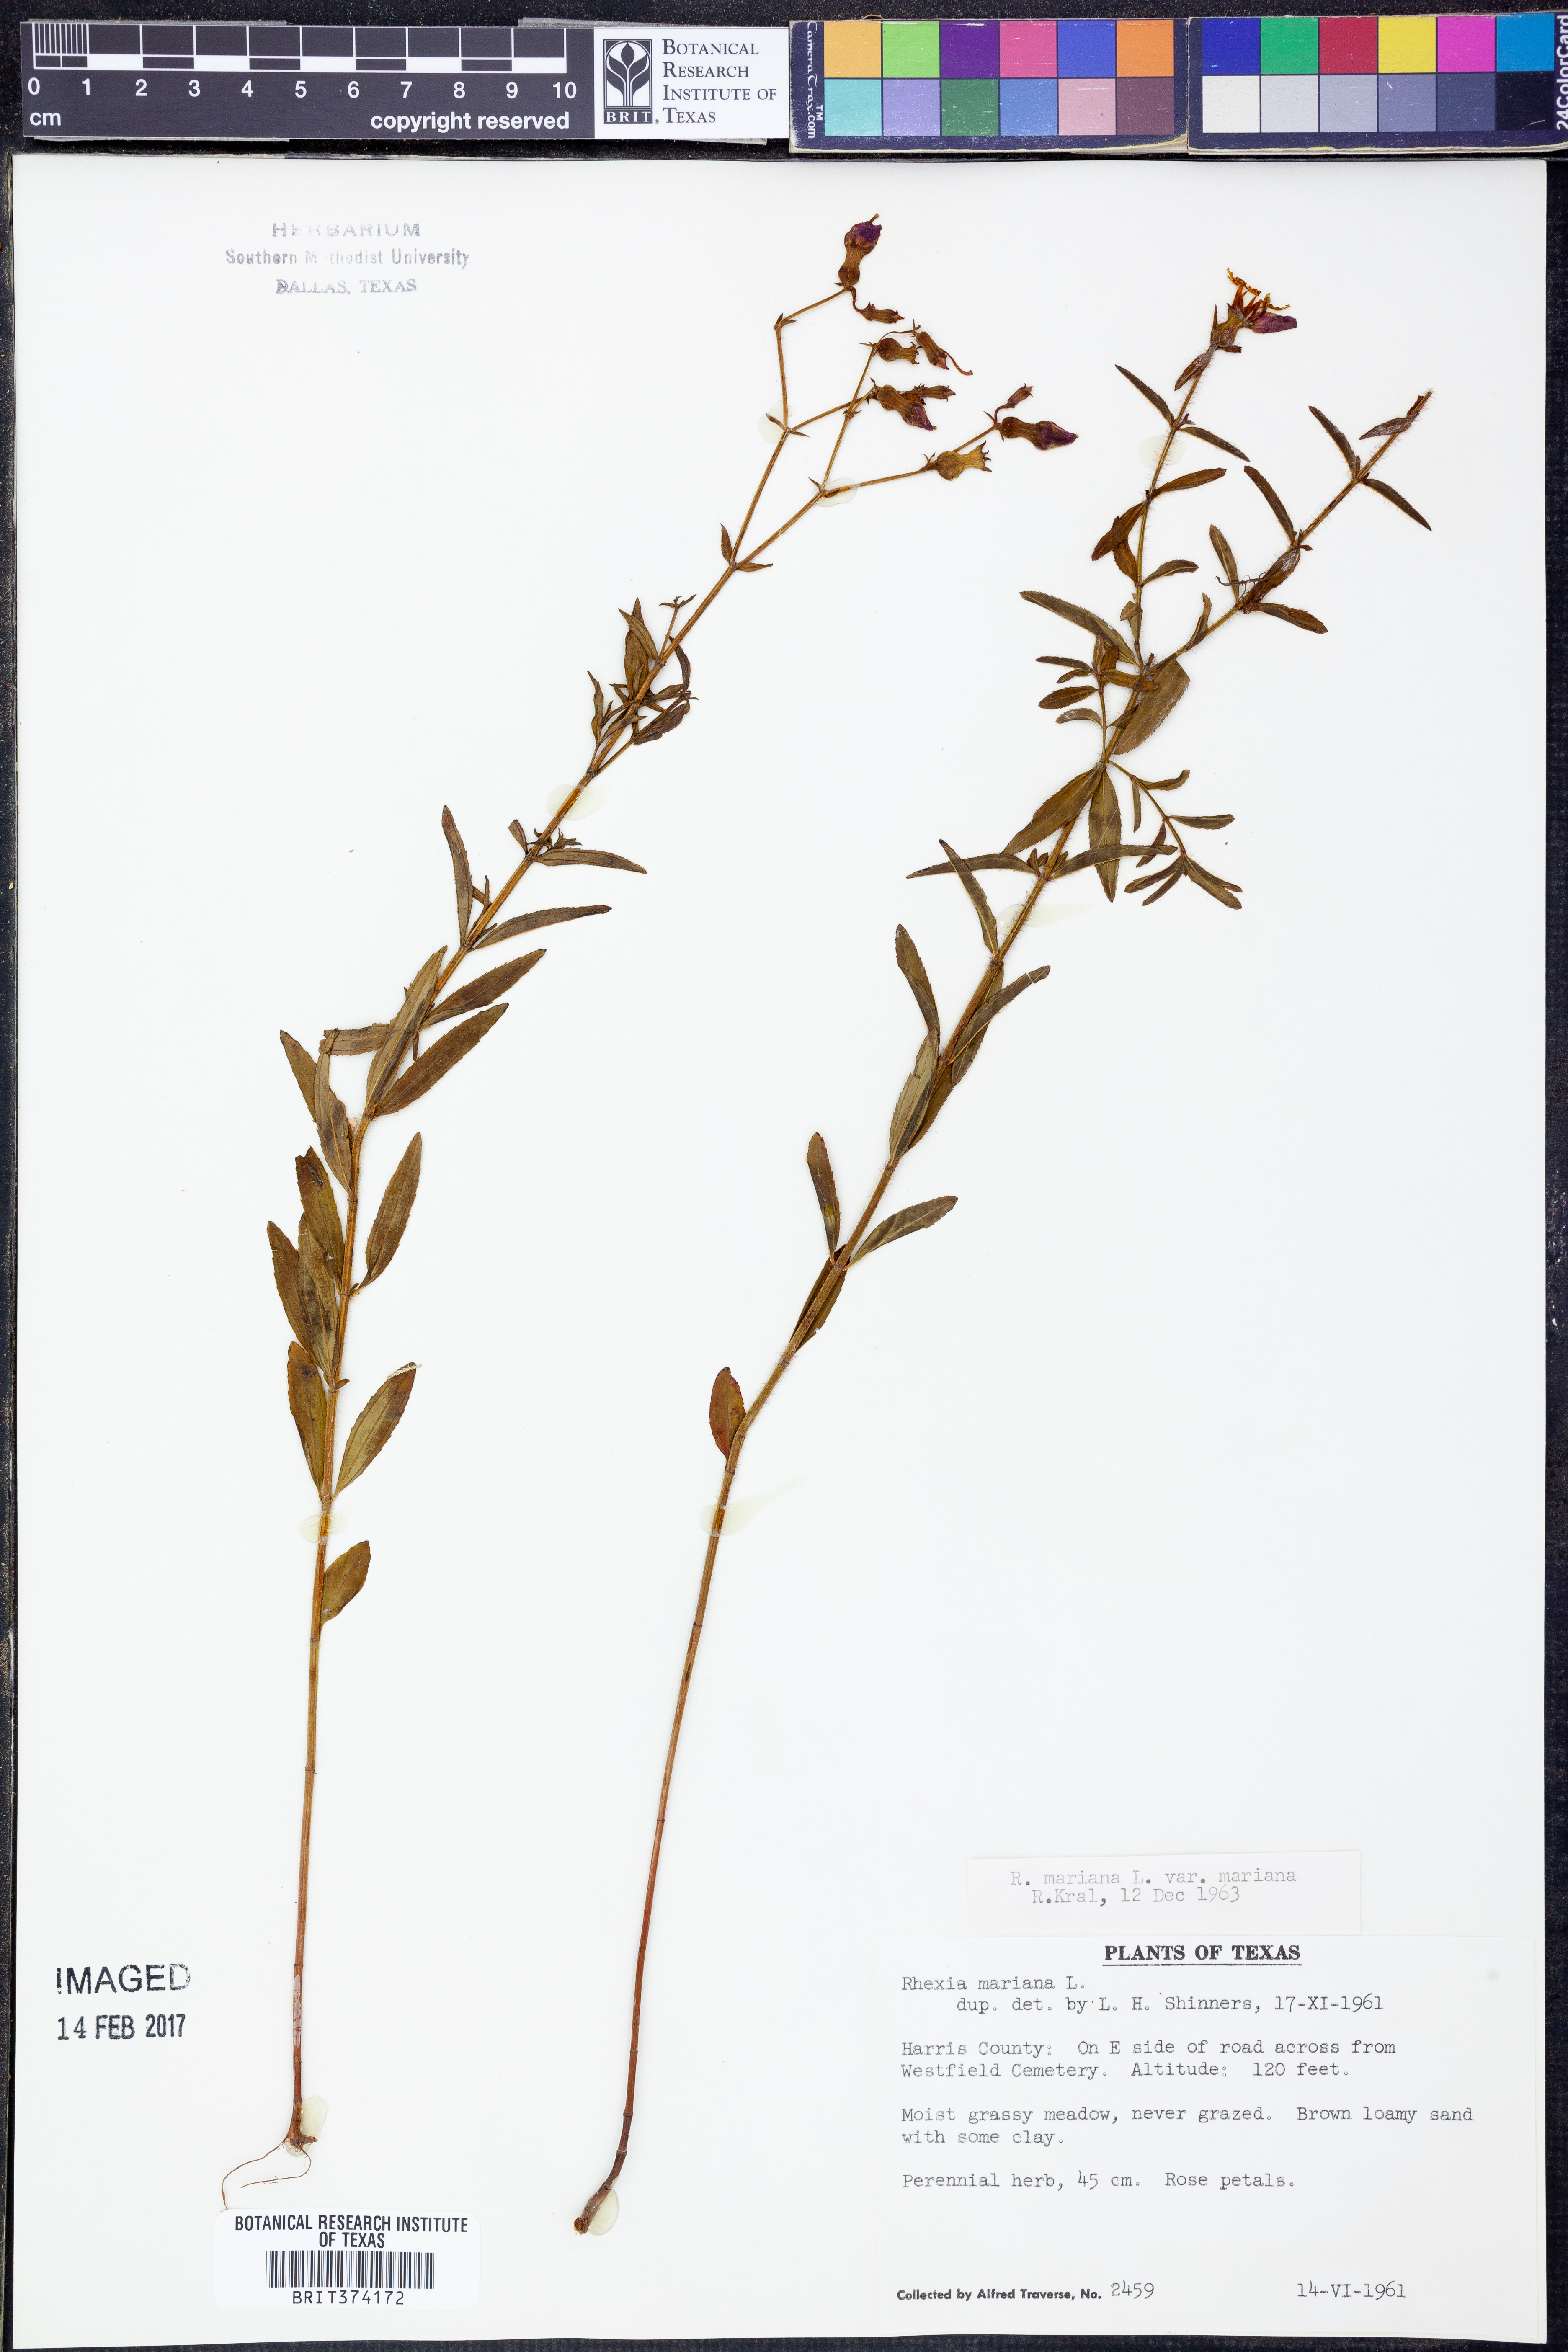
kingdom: Plantae
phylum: Tracheophyta
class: Magnoliopsida
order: Myrtales
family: Melastomataceae
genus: Rhexia
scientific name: Rhexia mariana
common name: Dull meadow-pitcher
